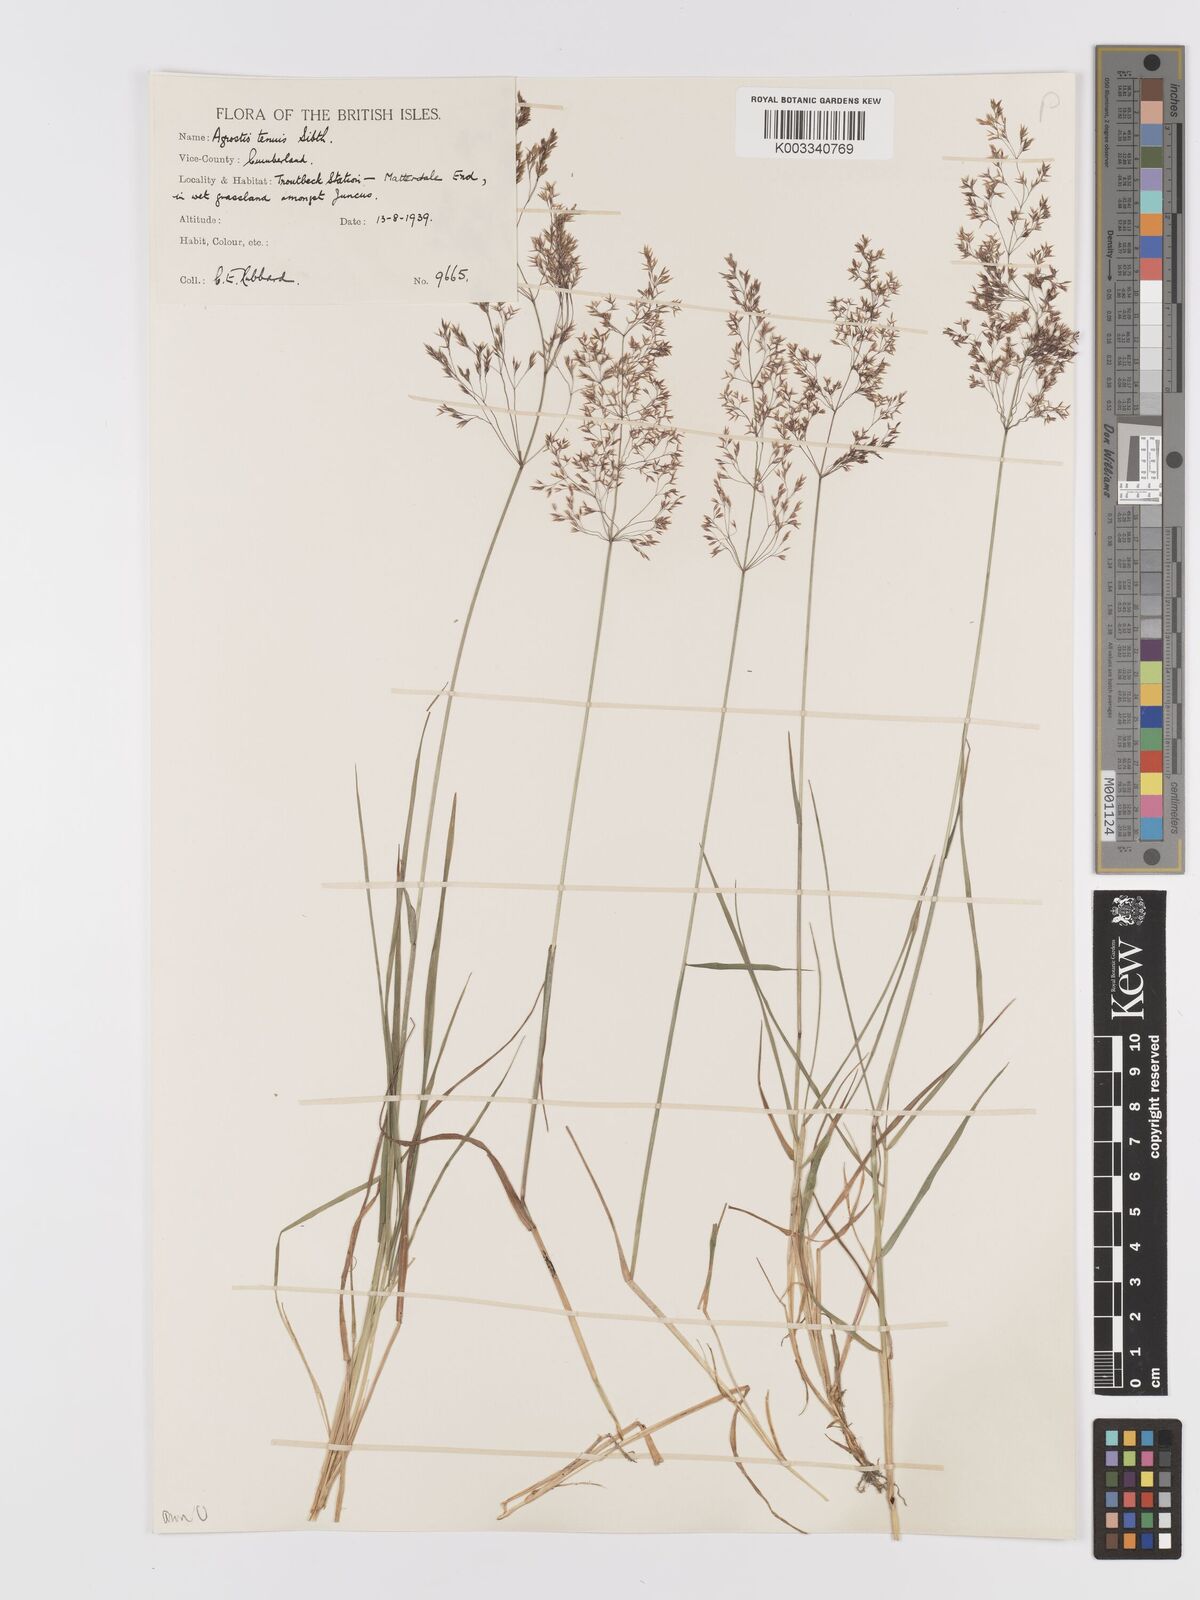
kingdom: Plantae
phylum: Tracheophyta
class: Liliopsida
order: Poales
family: Poaceae
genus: Agrostis
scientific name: Agrostis capillaris
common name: Colonial bentgrass
